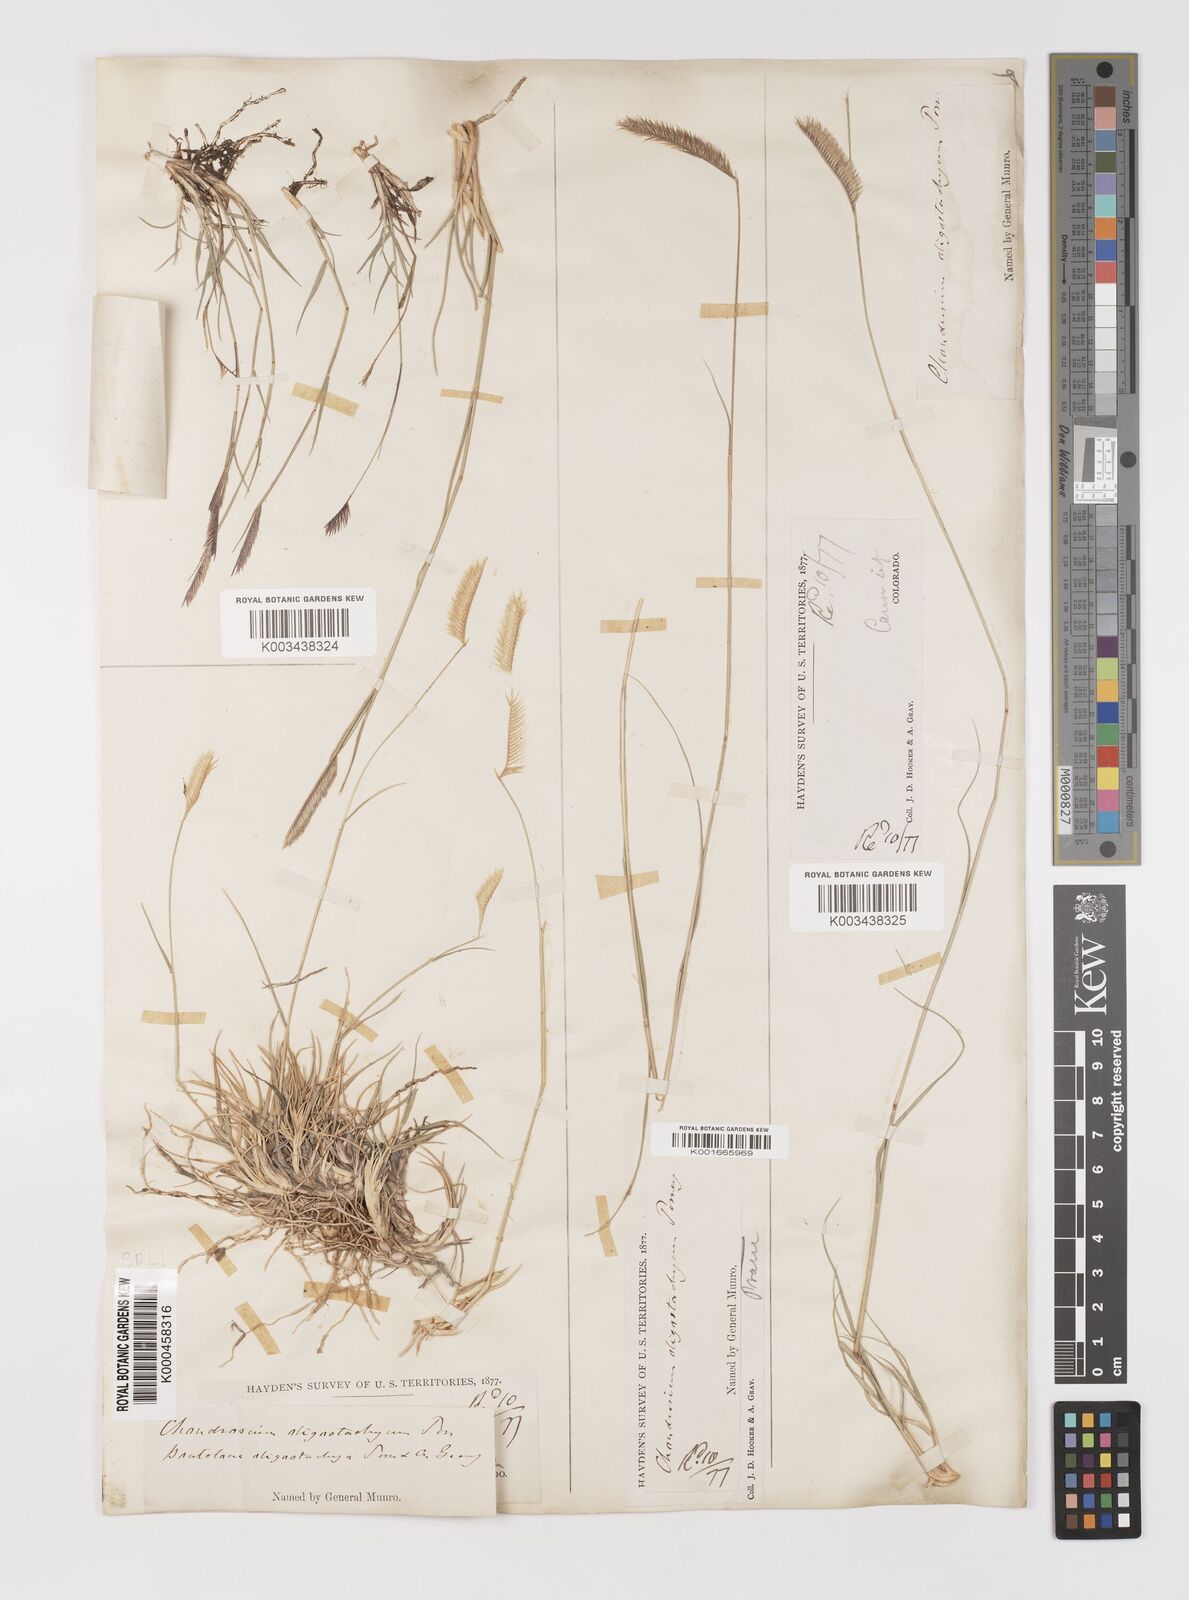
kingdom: Plantae
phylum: Tracheophyta
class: Liliopsida
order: Poales
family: Poaceae
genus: Bouteloua
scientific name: Bouteloua
